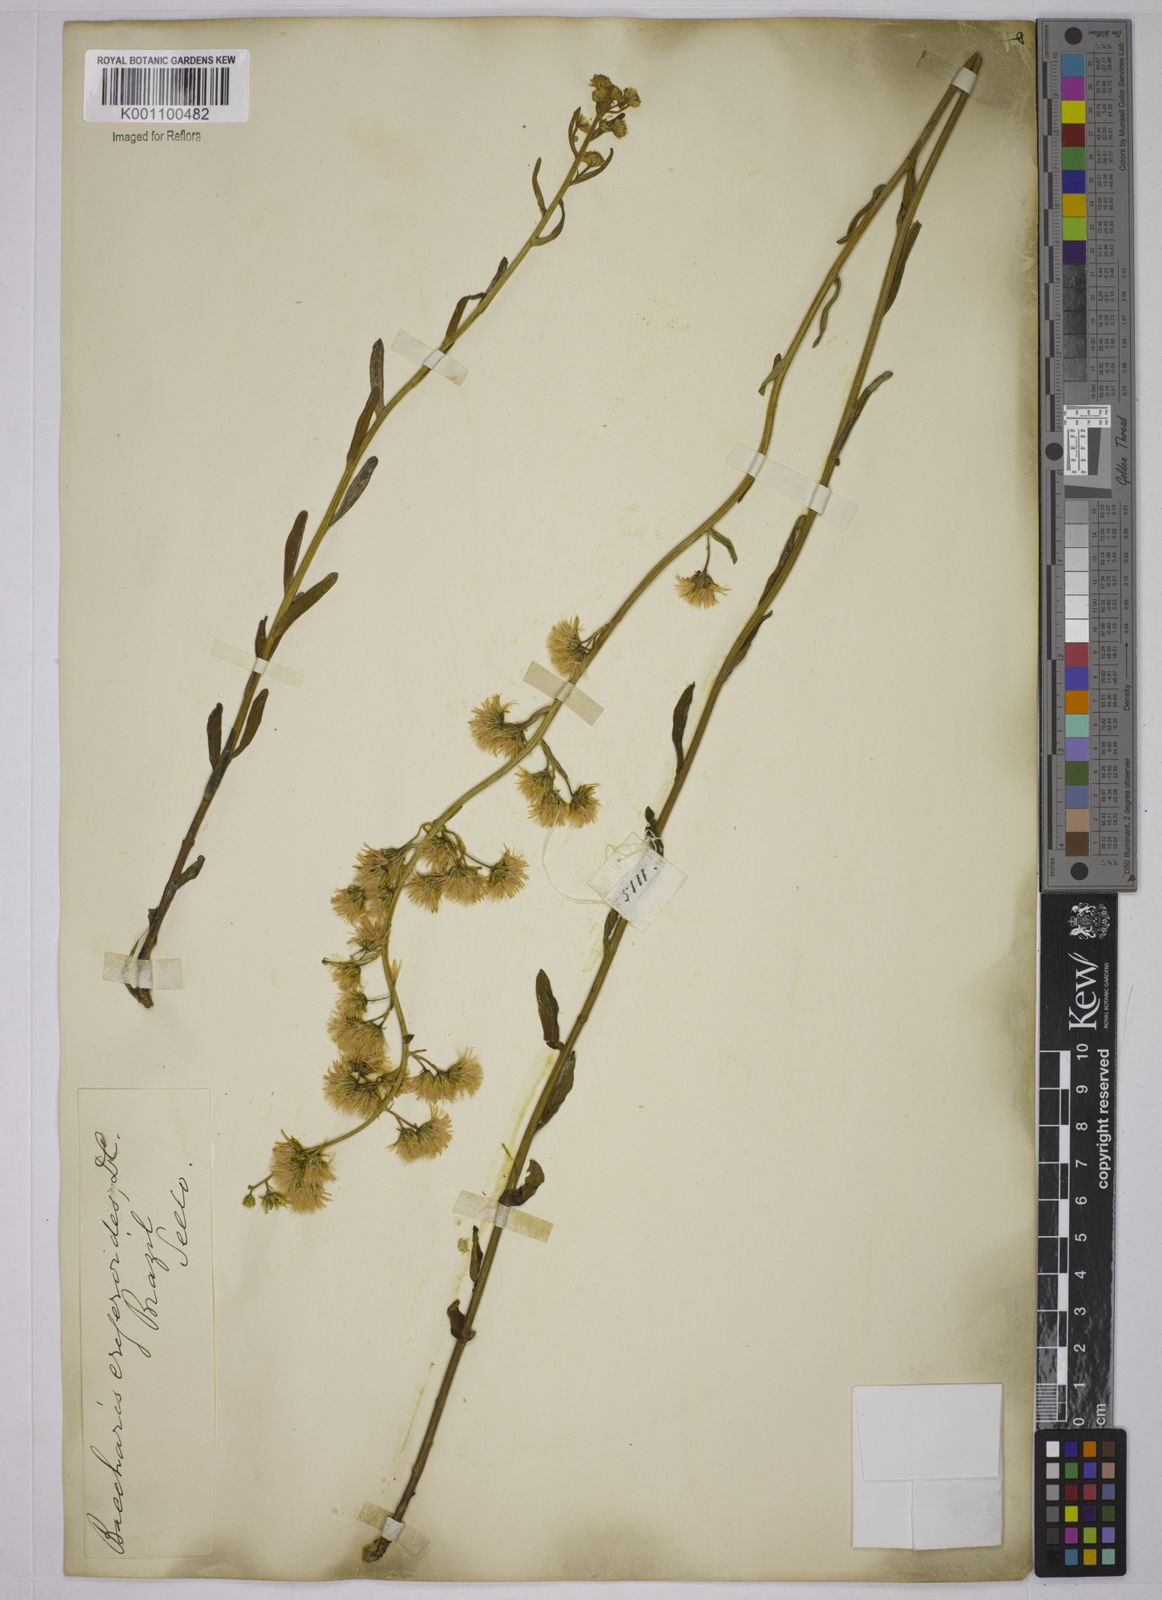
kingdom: Plantae
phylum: Tracheophyta
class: Magnoliopsida
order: Asterales
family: Asteraceae
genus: Baccharis
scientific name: Baccharis erigeroides
